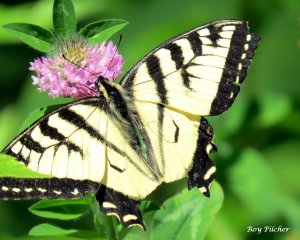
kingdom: Animalia
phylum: Arthropoda
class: Insecta
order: Lepidoptera
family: Papilionidae
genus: Pterourus
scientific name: Pterourus glaucus
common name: Eastern Tiger Swallowtail
